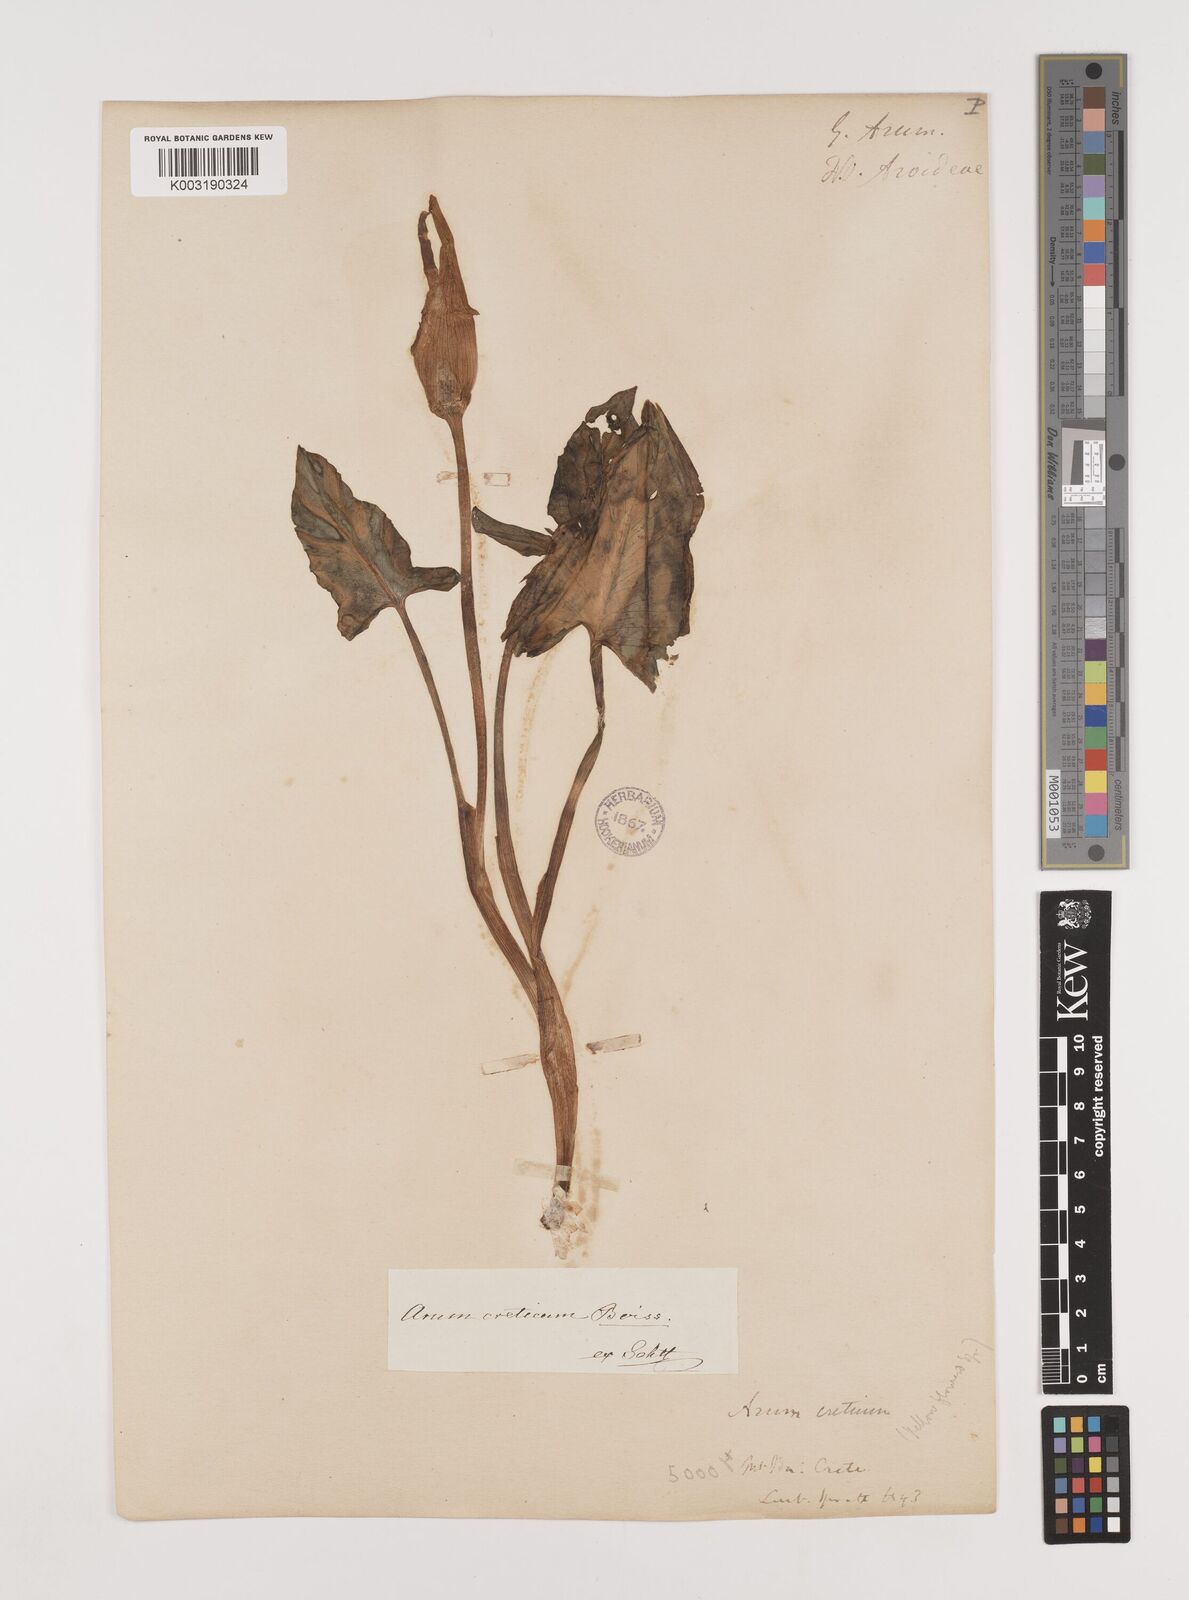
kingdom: Plantae
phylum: Tracheophyta
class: Liliopsida
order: Alismatales
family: Araceae
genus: Arum
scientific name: Arum creticum
